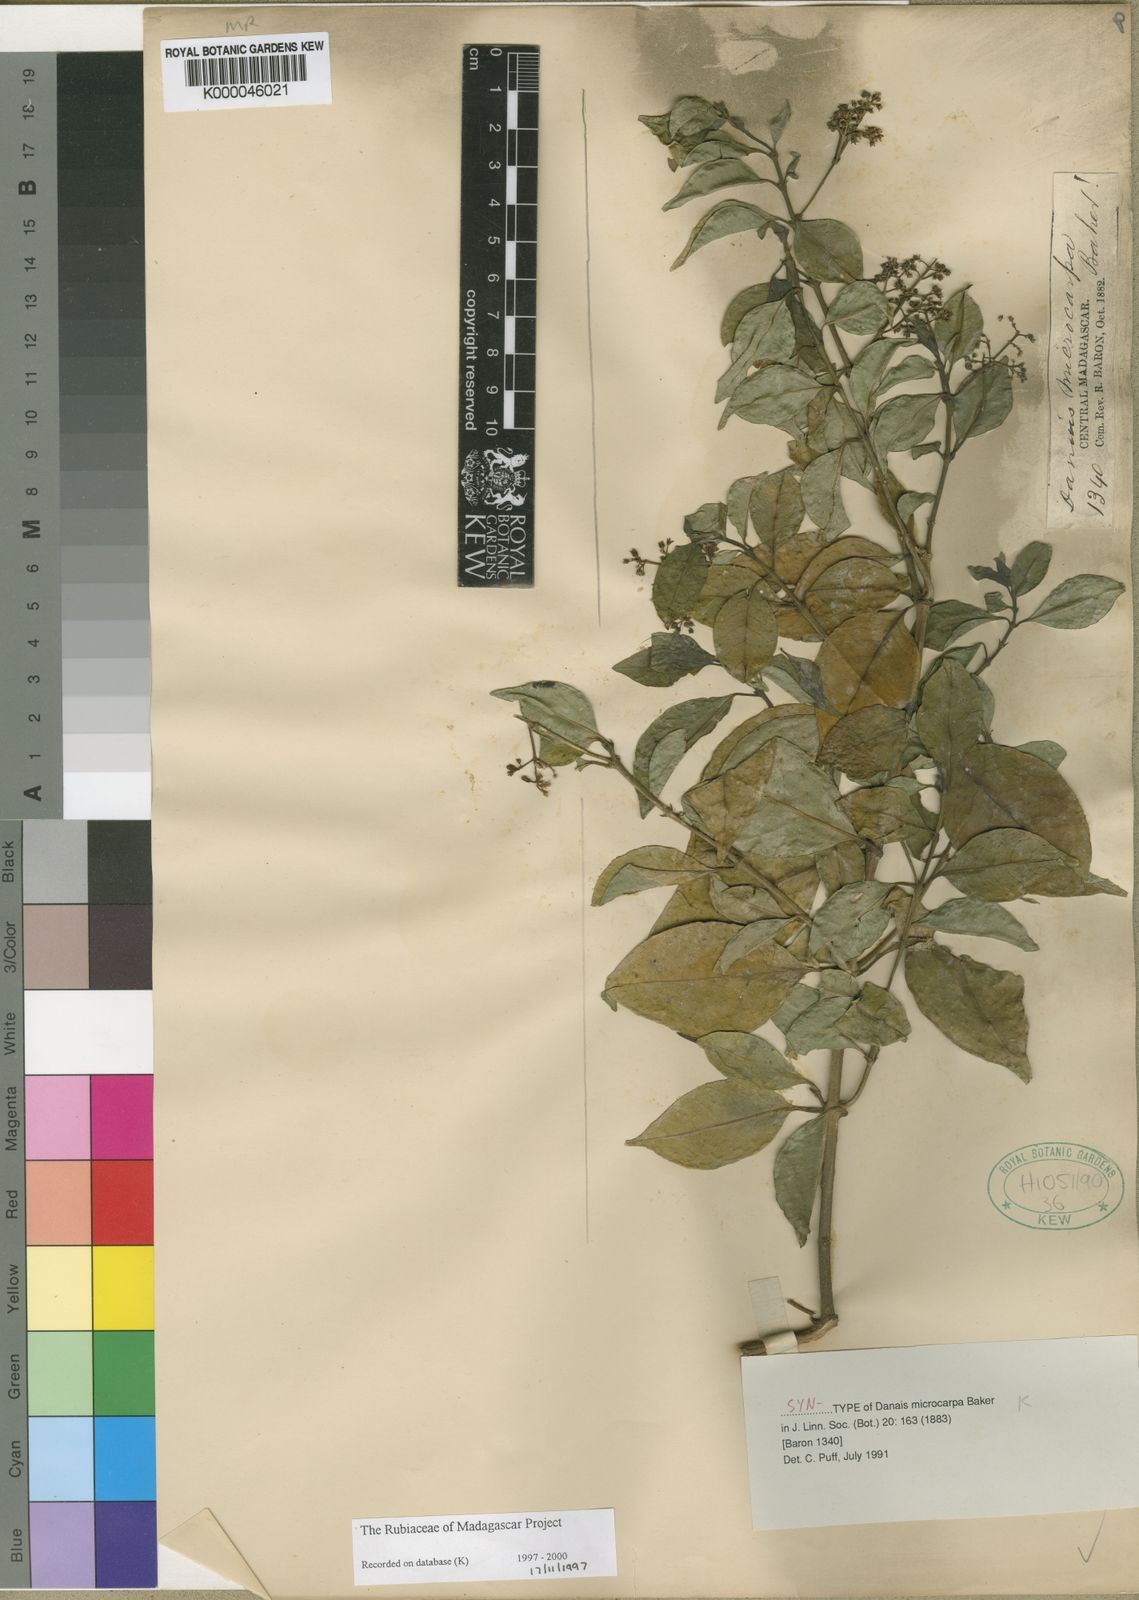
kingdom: Plantae
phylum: Tracheophyta
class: Magnoliopsida
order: Gentianales
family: Rubiaceae
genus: Danais
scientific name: Danais microcarpa
